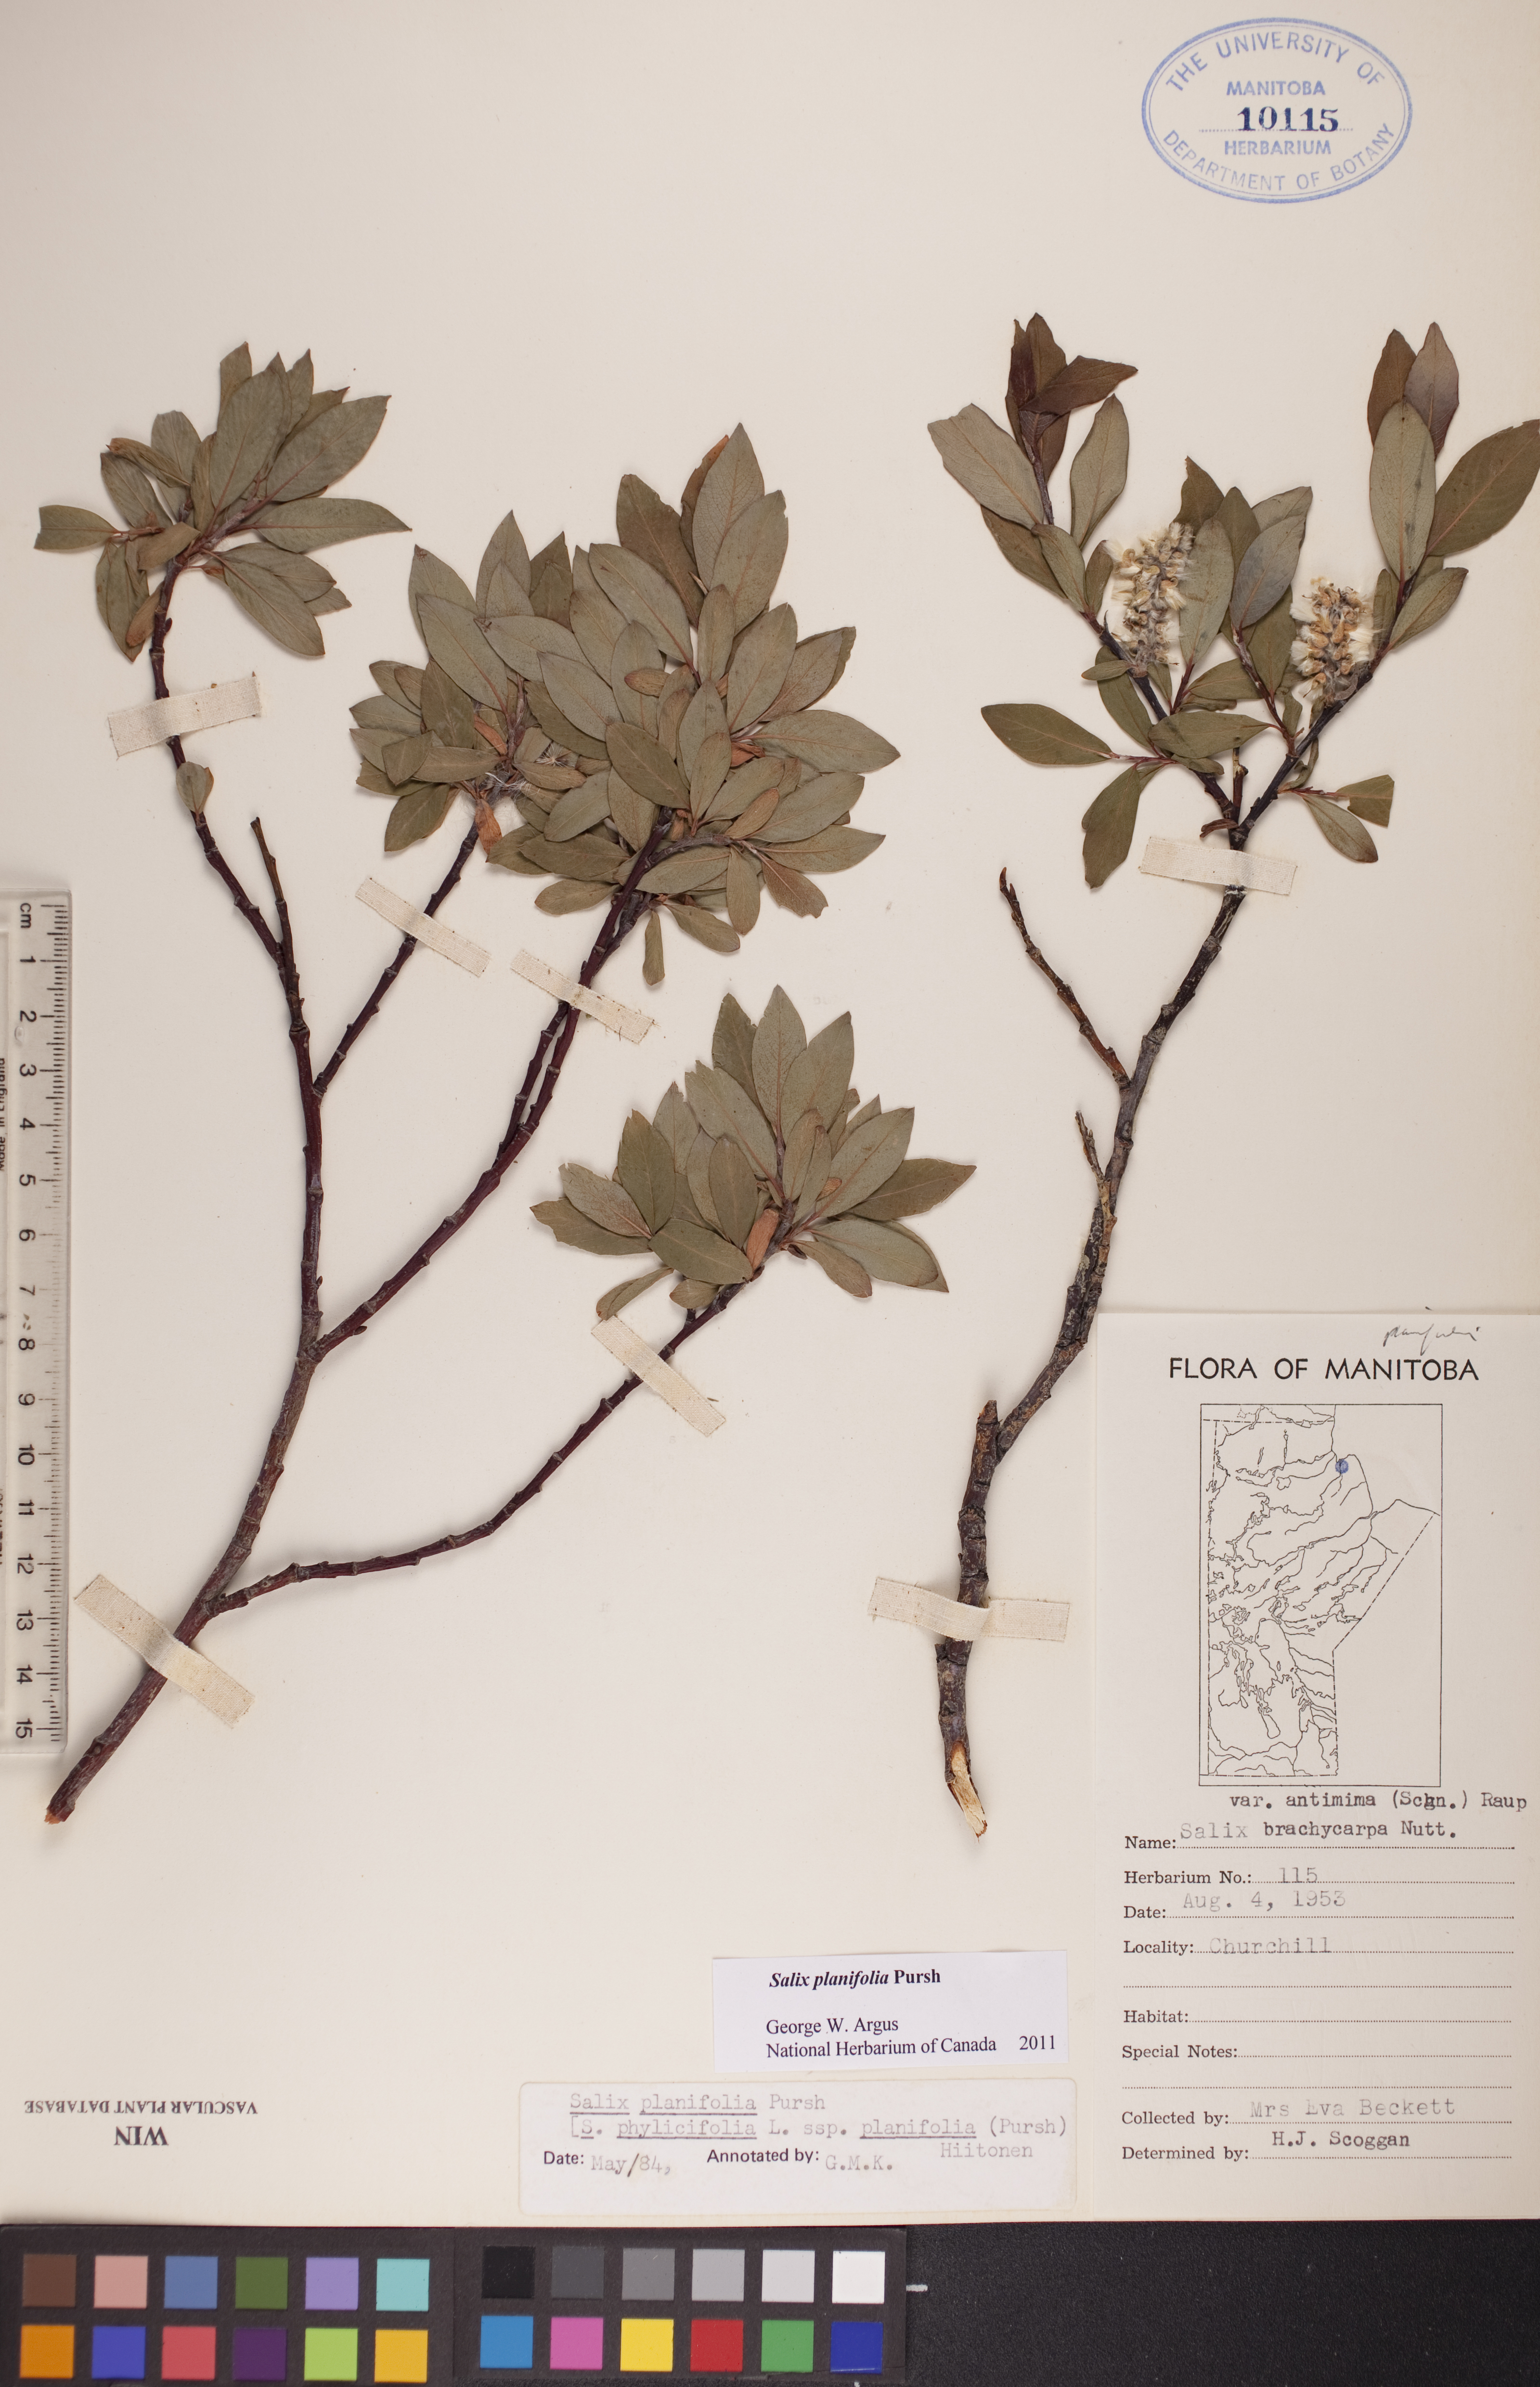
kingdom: Plantae
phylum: Tracheophyta
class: Magnoliopsida
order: Malpighiales
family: Salicaceae
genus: Salix
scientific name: Salix planifolia
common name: Mountain willow
